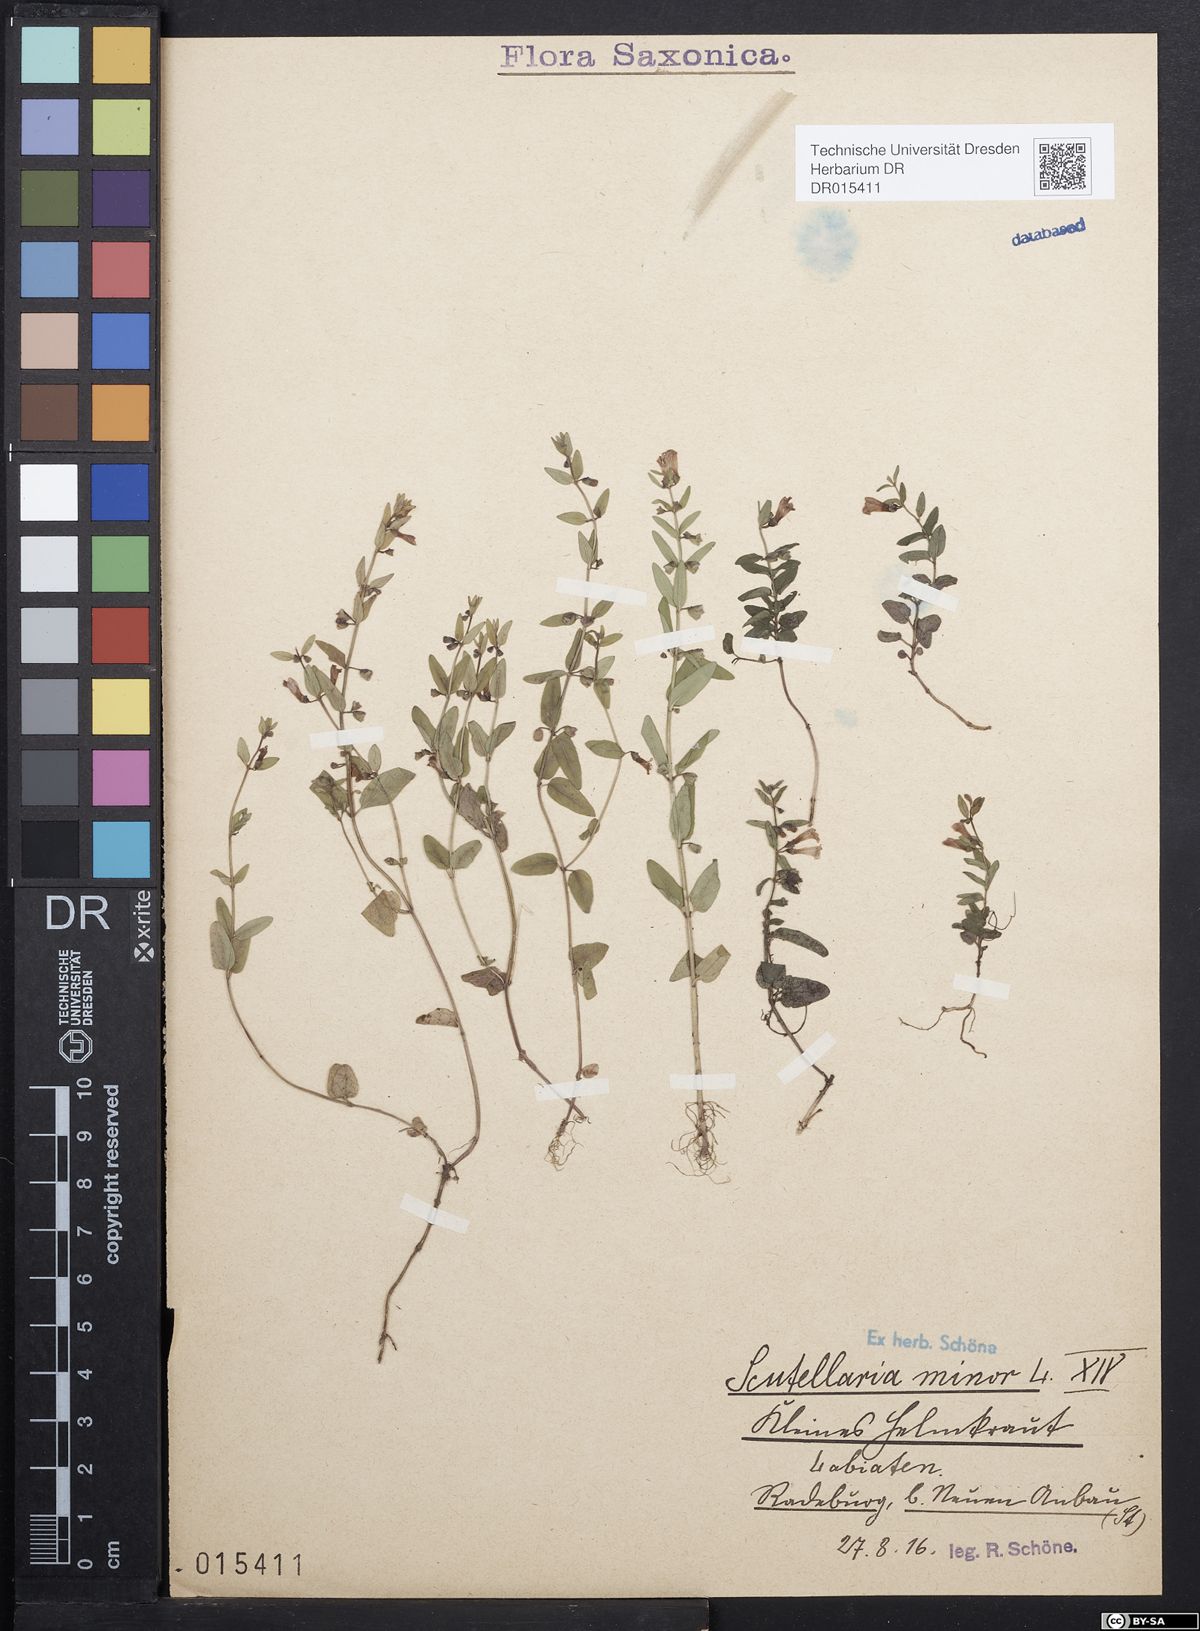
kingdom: Plantae
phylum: Tracheophyta
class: Magnoliopsida
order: Lamiales
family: Lamiaceae
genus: Scutellaria
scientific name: Scutellaria minor
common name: Lesser skullcap
